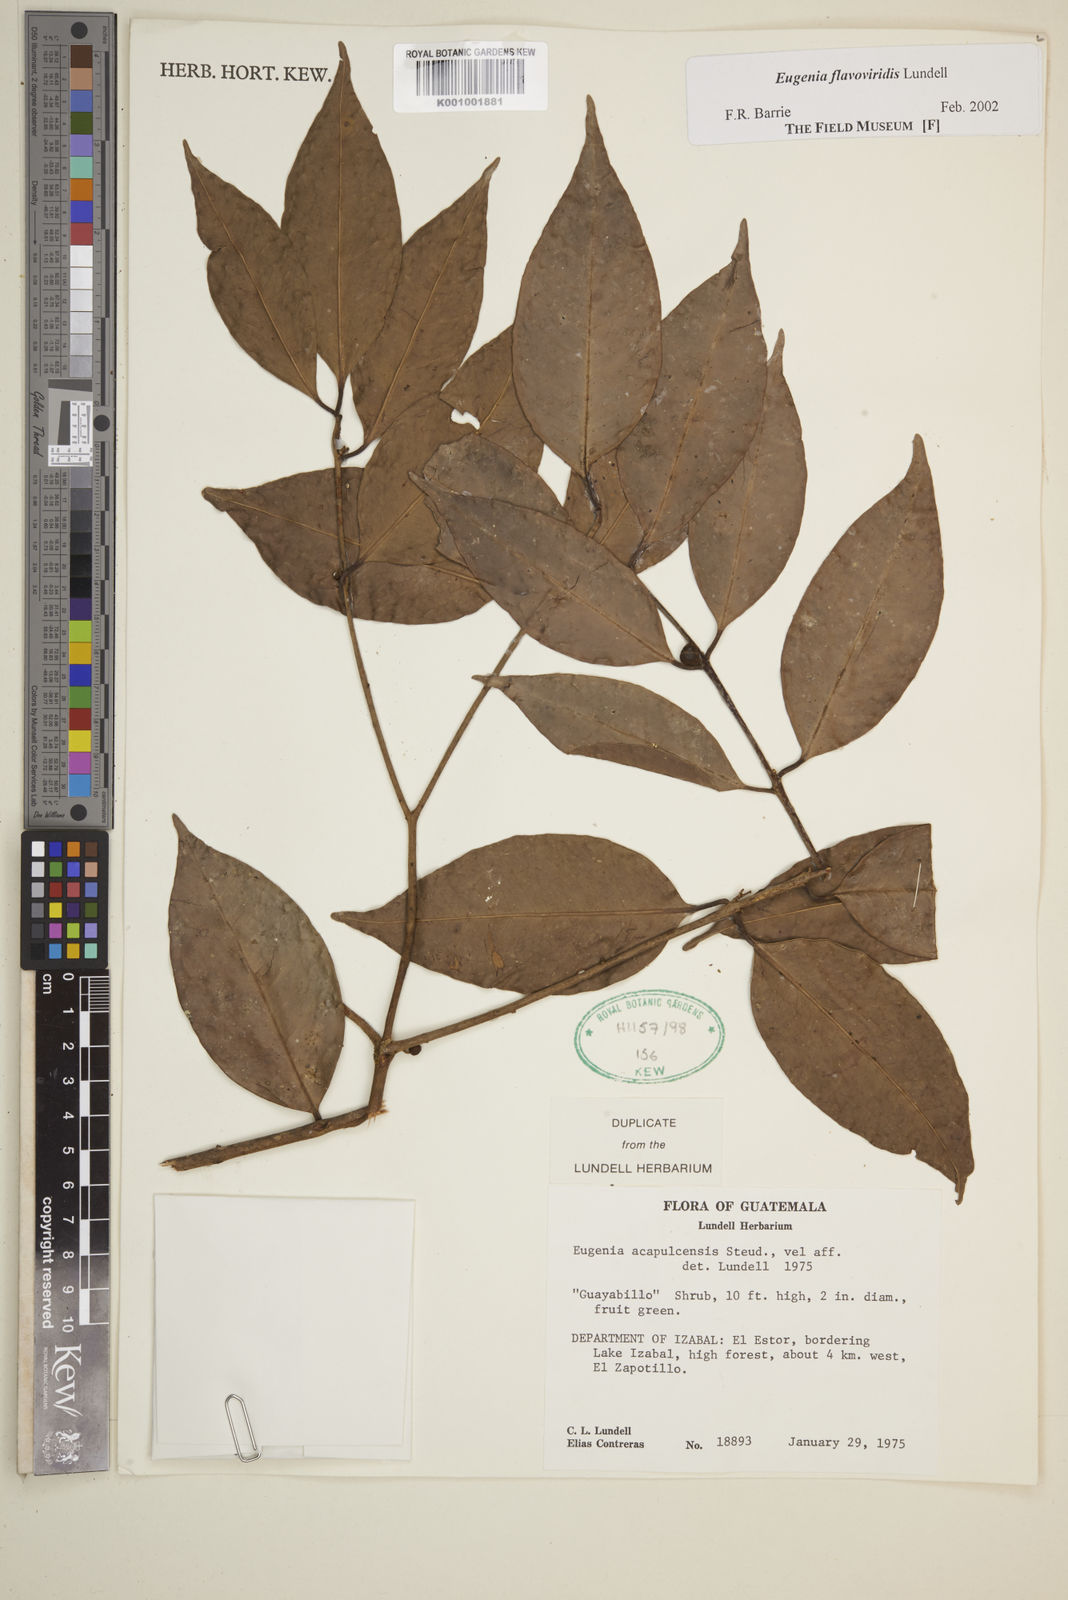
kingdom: Plantae
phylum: Tracheophyta
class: Magnoliopsida
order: Myrtales
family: Myrtaceae
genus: Eugenia
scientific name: Eugenia flavoviridis
